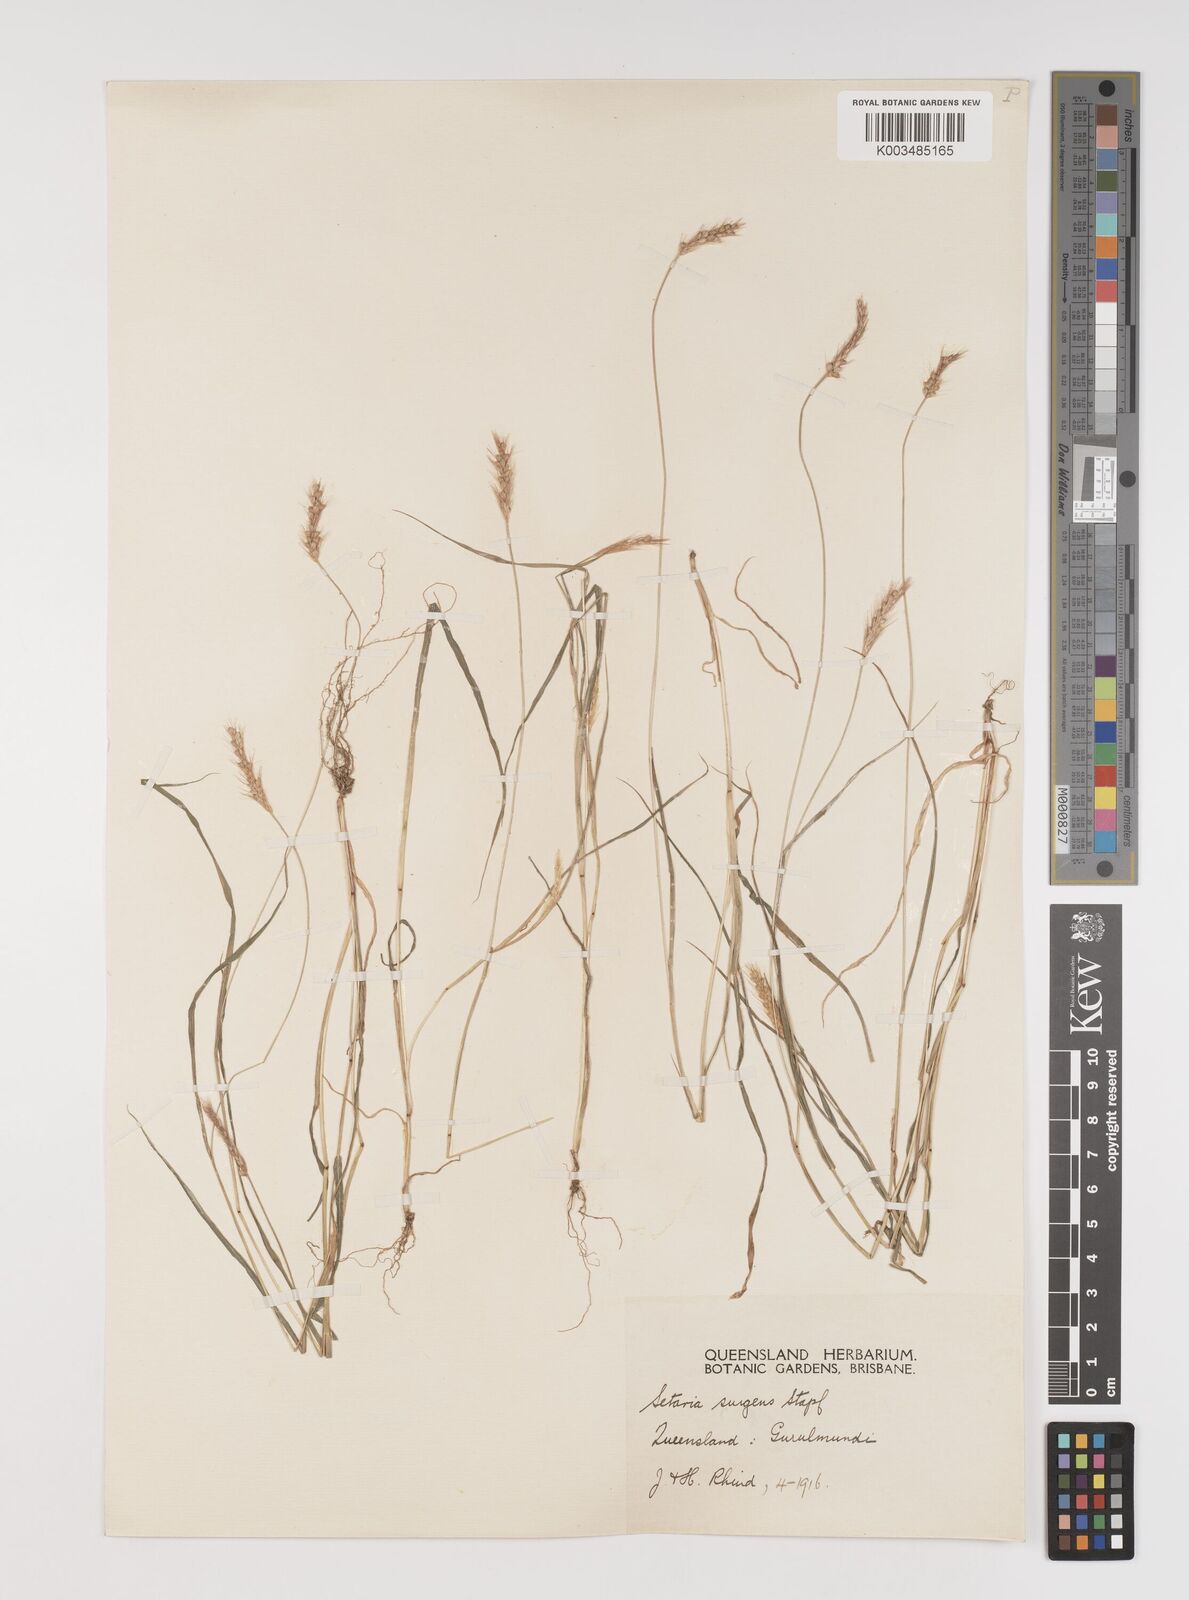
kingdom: Plantae
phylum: Tracheophyta
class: Liliopsida
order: Poales
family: Poaceae
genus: Setaria
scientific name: Setaria brownii
